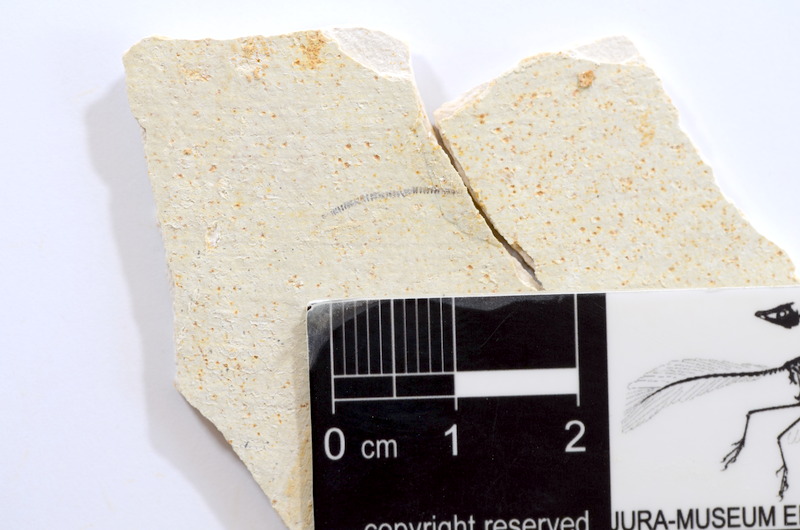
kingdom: Animalia
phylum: Chordata
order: Salmoniformes
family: Orthogonikleithridae
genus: Orthogonikleithrus
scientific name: Orthogonikleithrus hoelli
